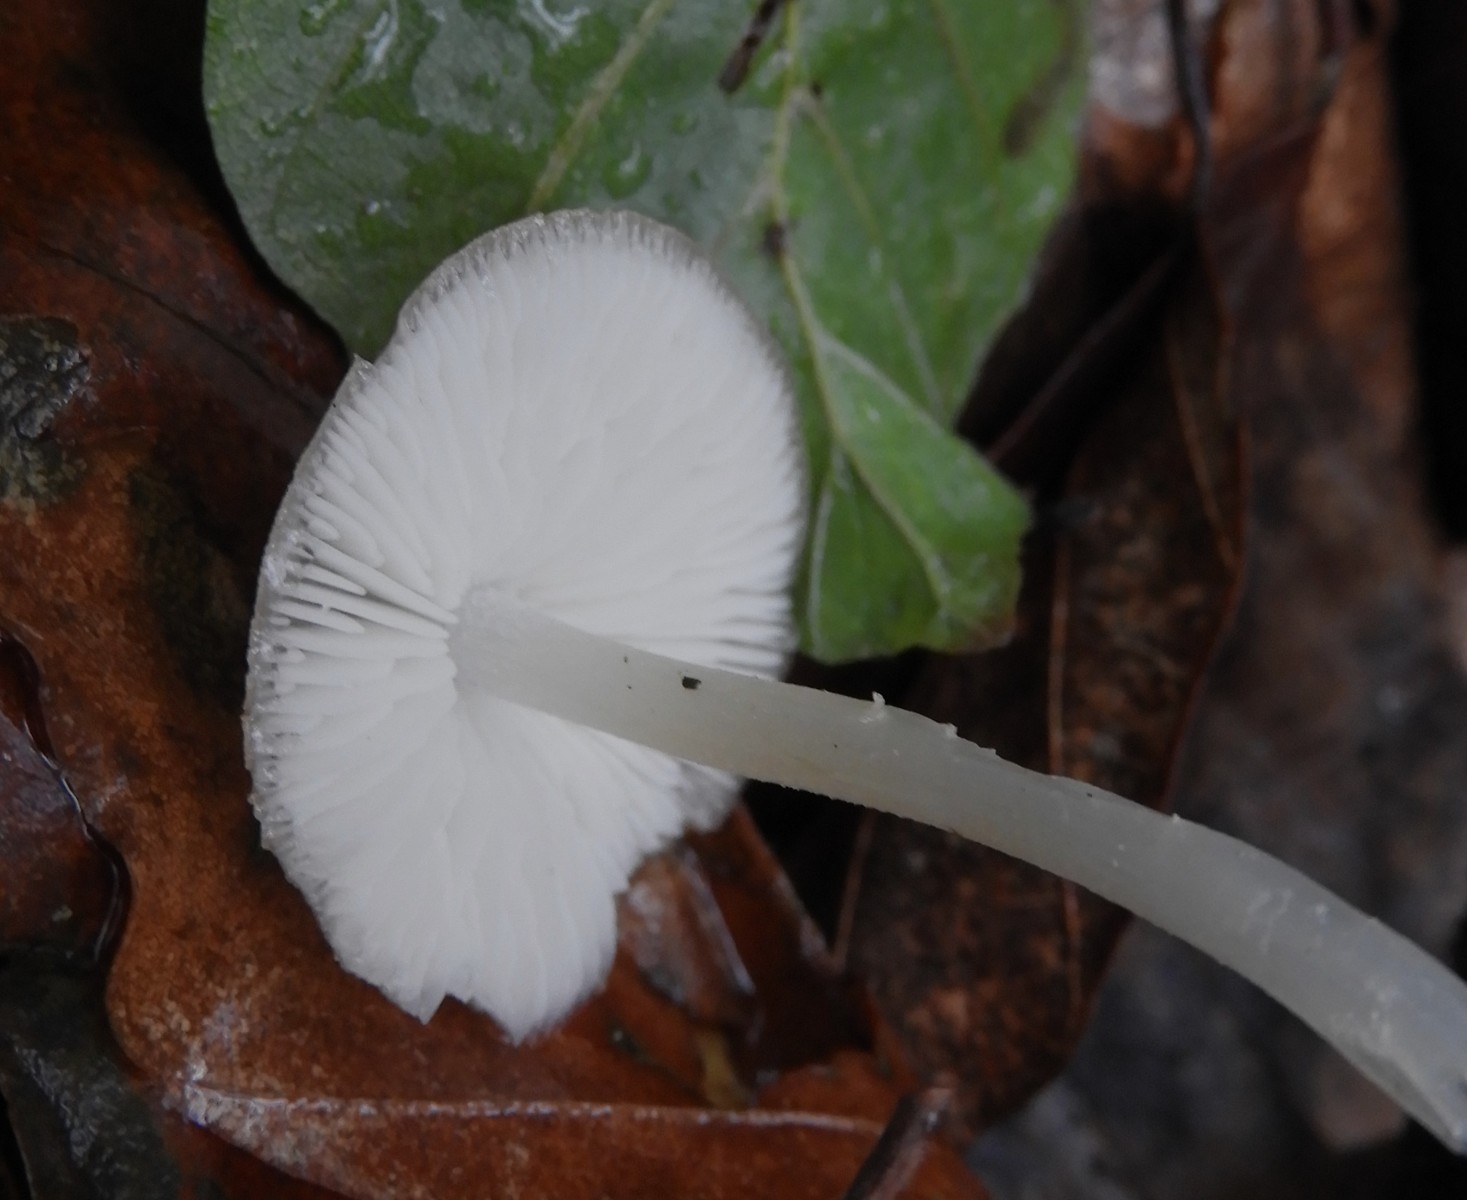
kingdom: Fungi
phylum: Basidiomycota
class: Agaricomycetes
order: Agaricales
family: Porotheleaceae
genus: Hydropodia
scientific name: Hydropodia subalpina
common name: vår-fnugfod
